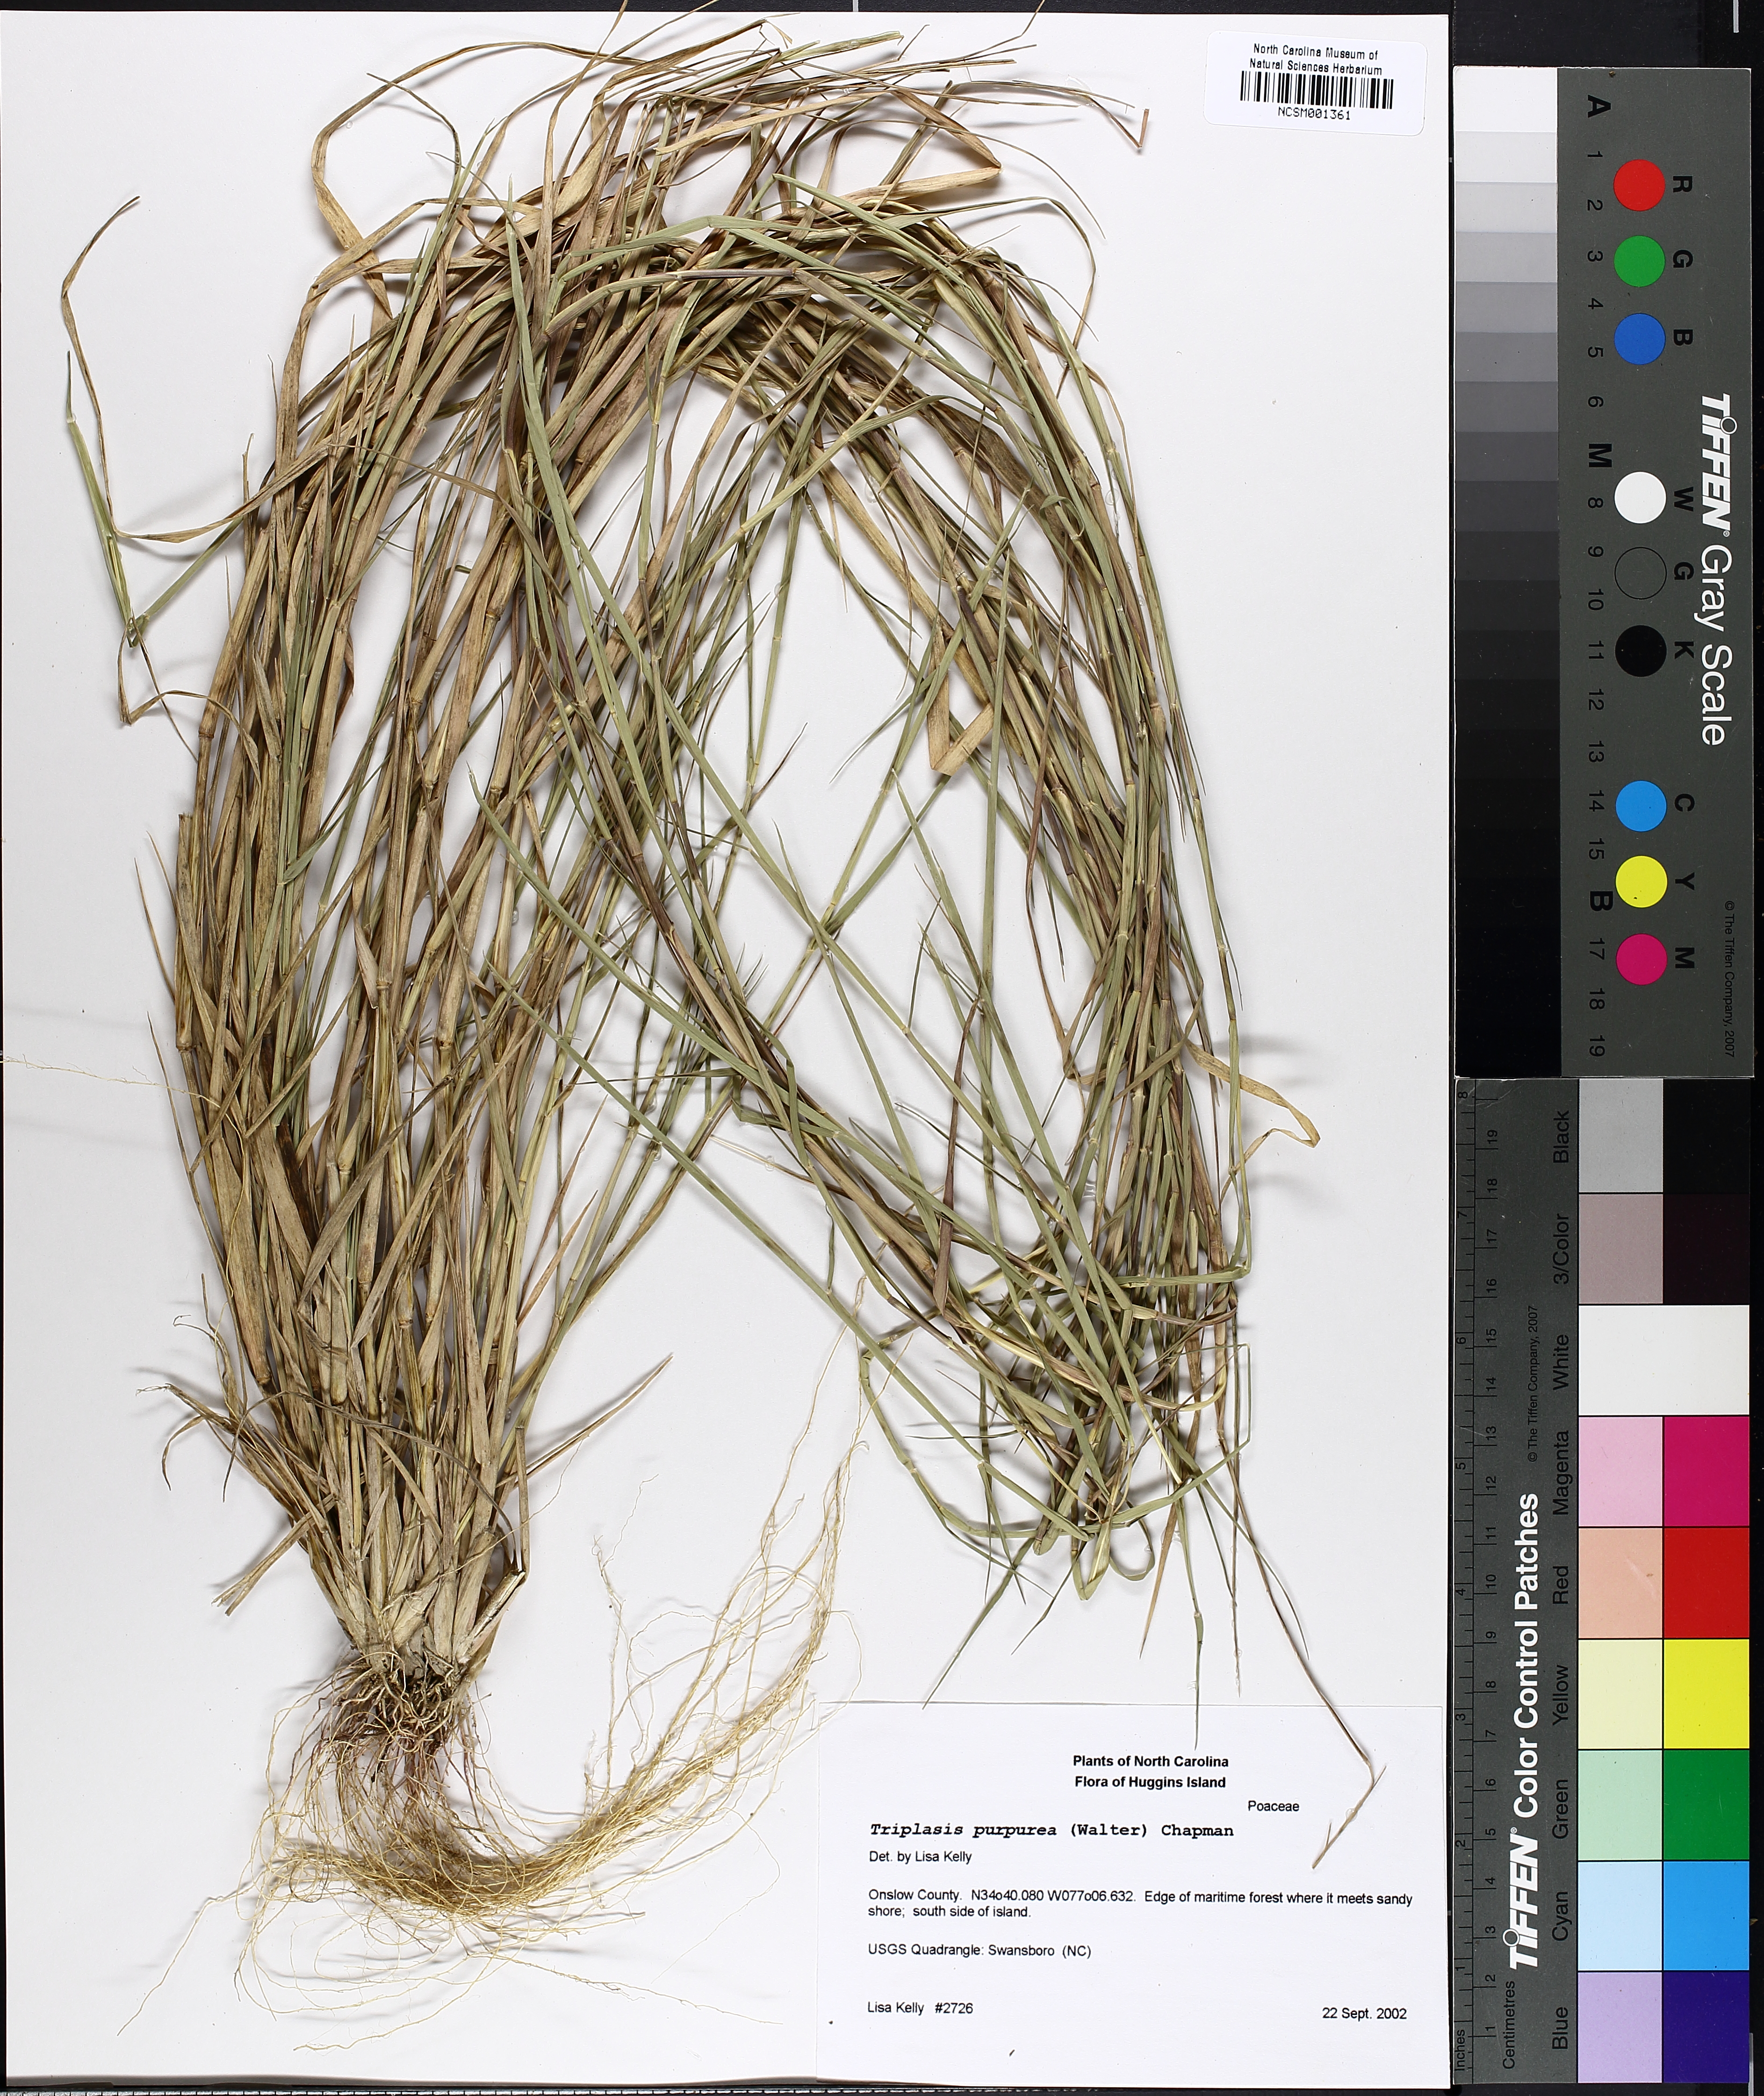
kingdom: Plantae
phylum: Tracheophyta
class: Liliopsida
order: Poales
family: Poaceae
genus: Triplasis
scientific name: Triplasis purpurea
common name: Purple sand grass
